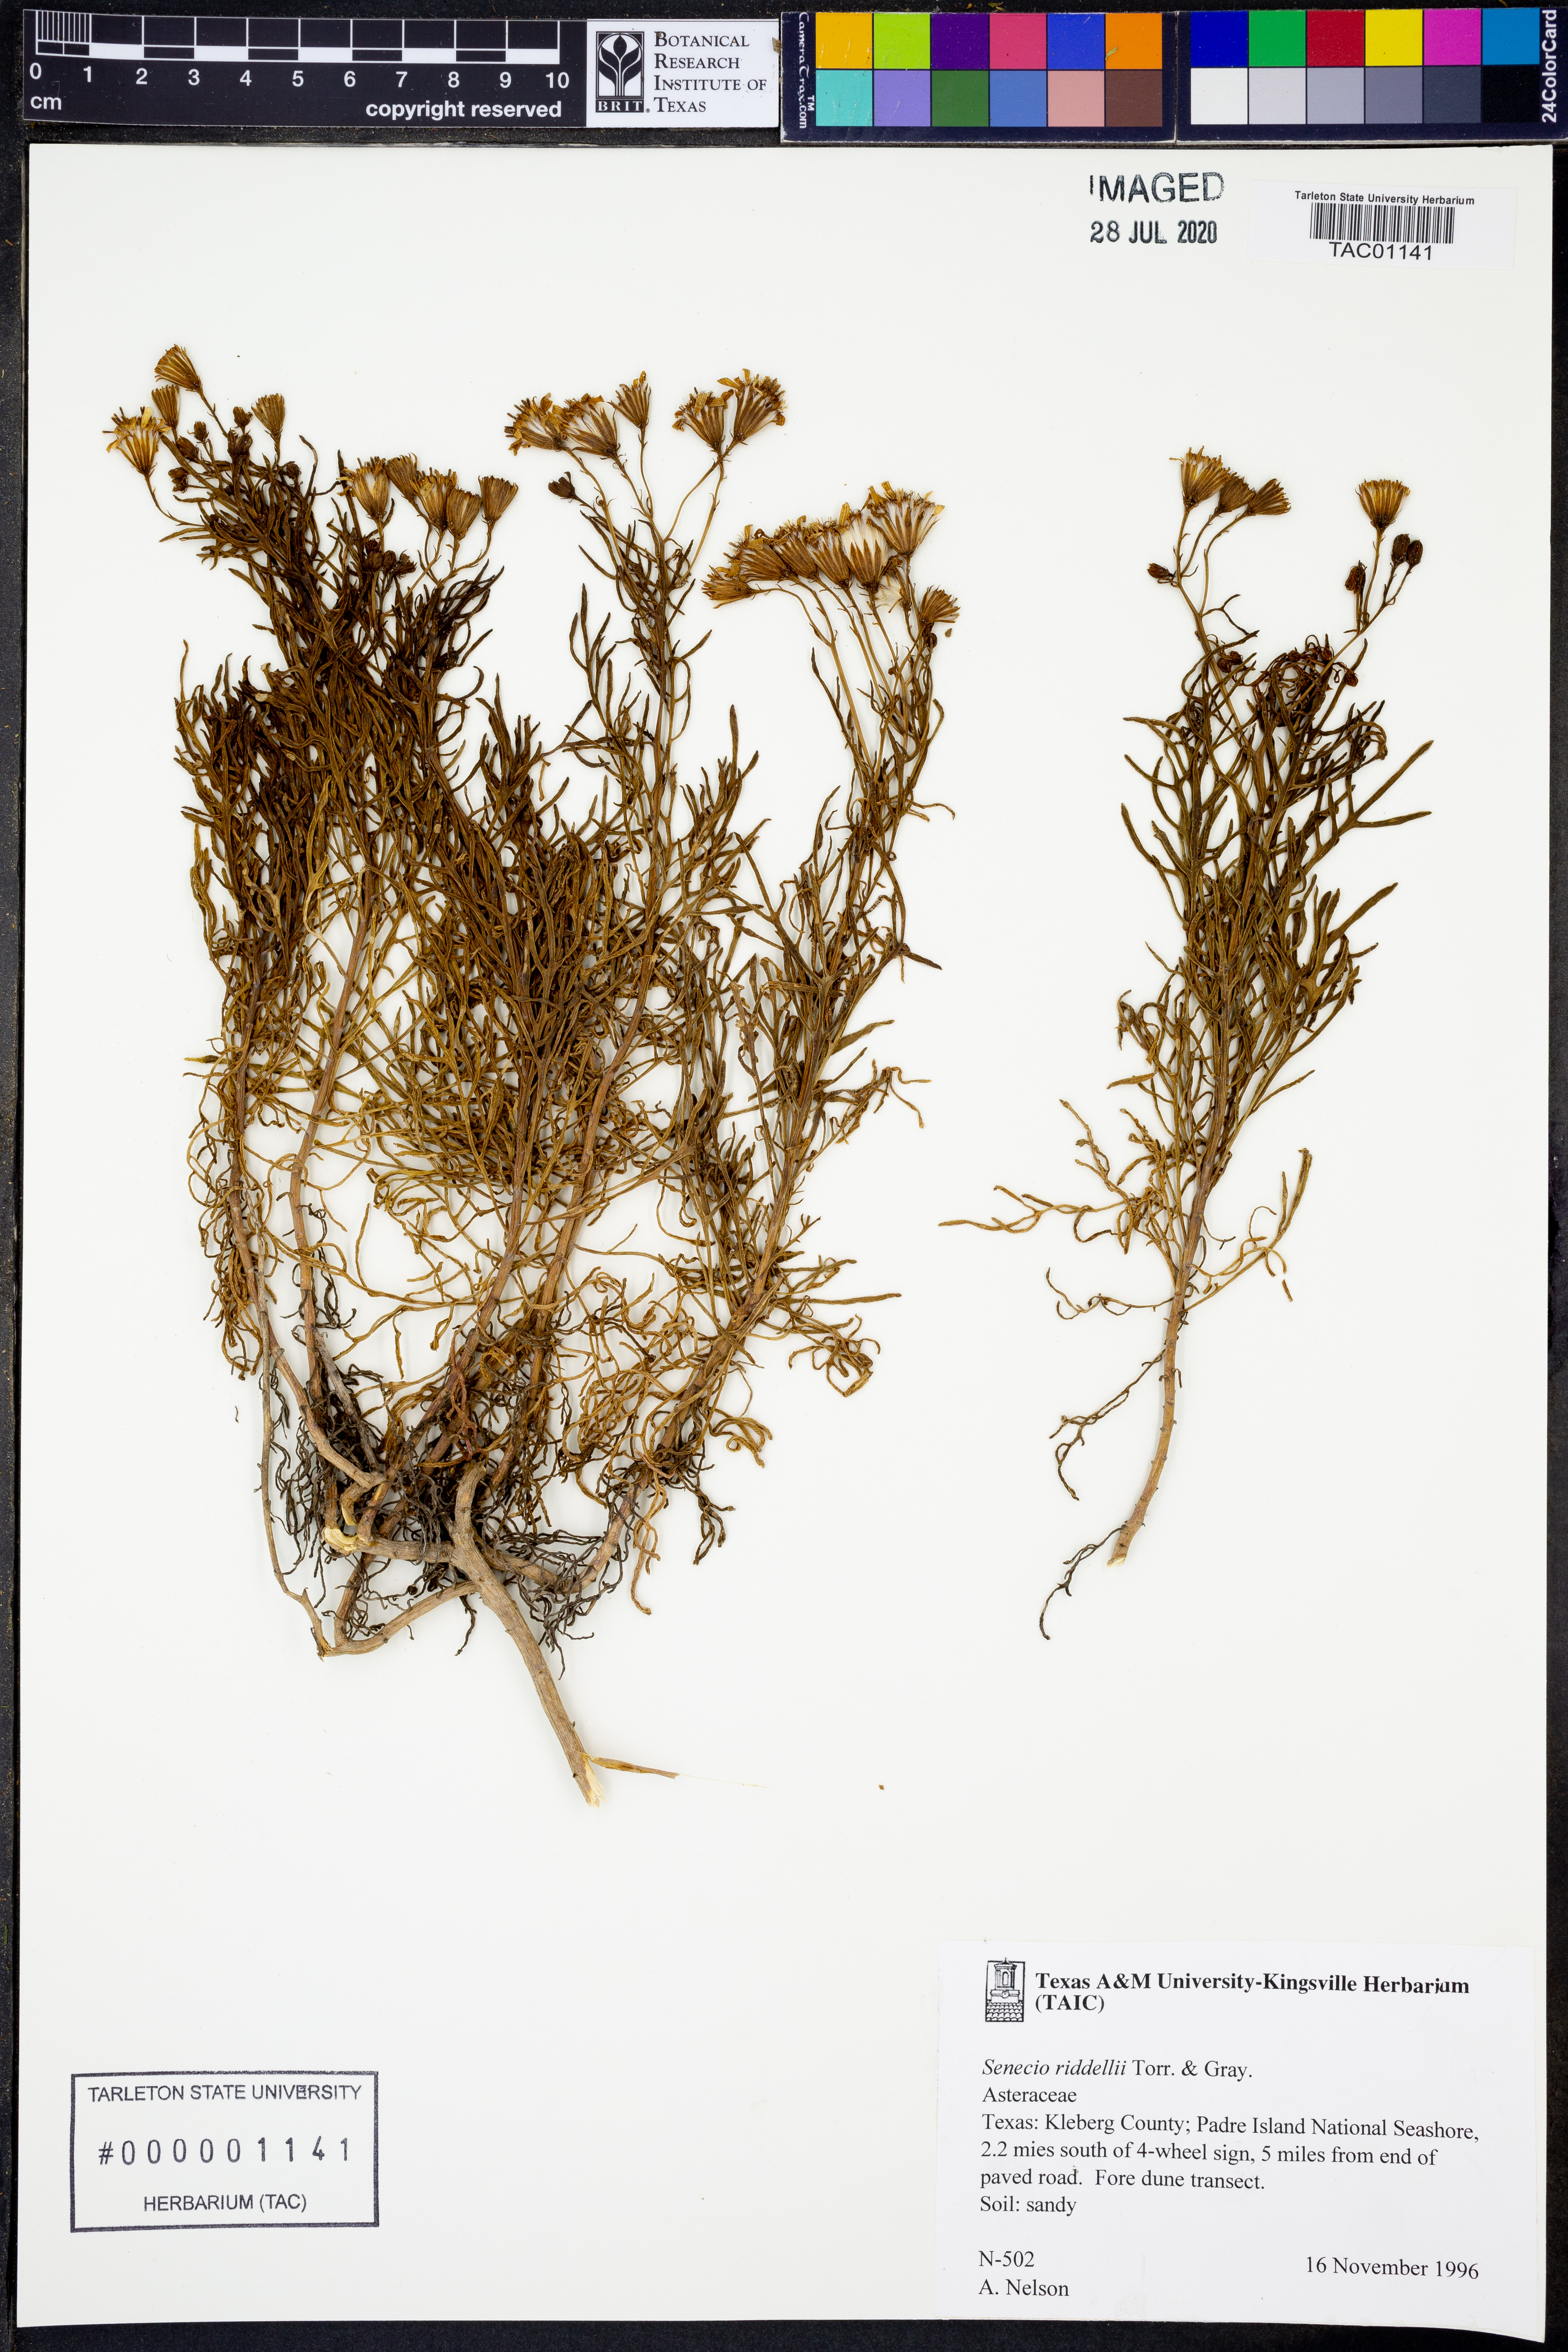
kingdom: Plantae
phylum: Tracheophyta
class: Magnoliopsida
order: Asterales
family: Asteraceae
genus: Senecio
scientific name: Senecio riddellii
